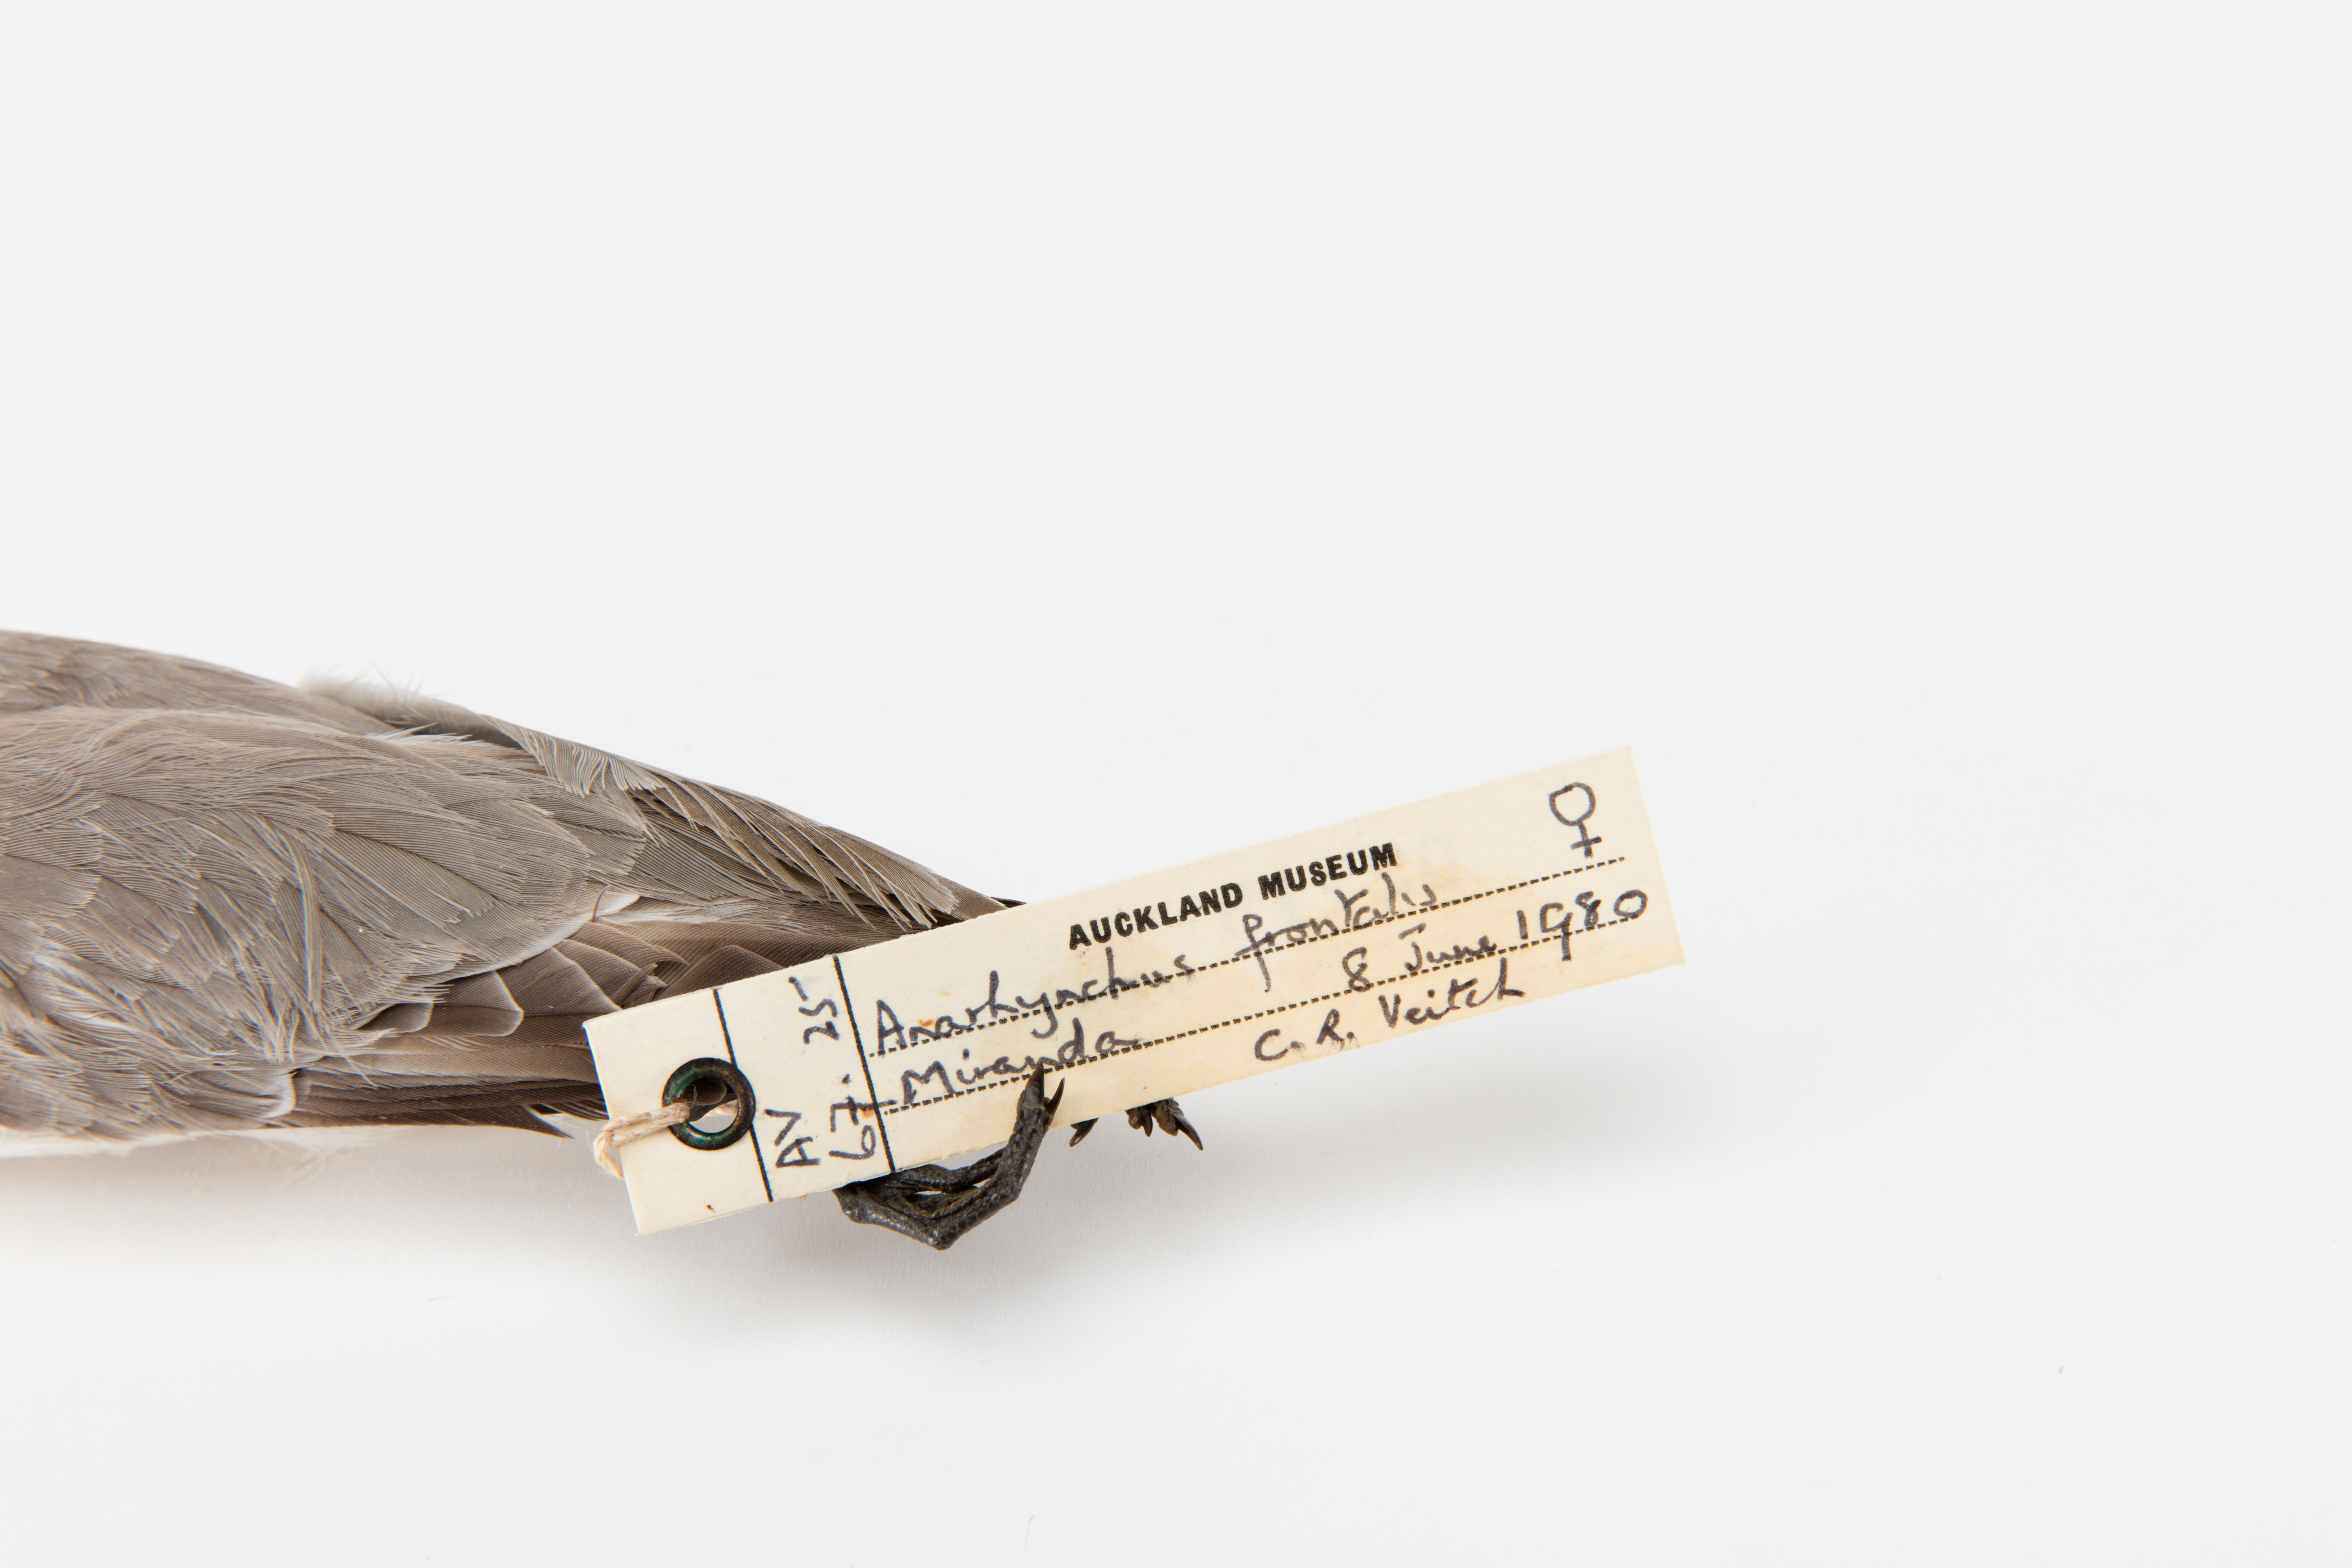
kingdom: Animalia
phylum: Chordata
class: Aves
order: Charadriiformes
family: Charadriidae
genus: Charadrius
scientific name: Charadrius frontalis
